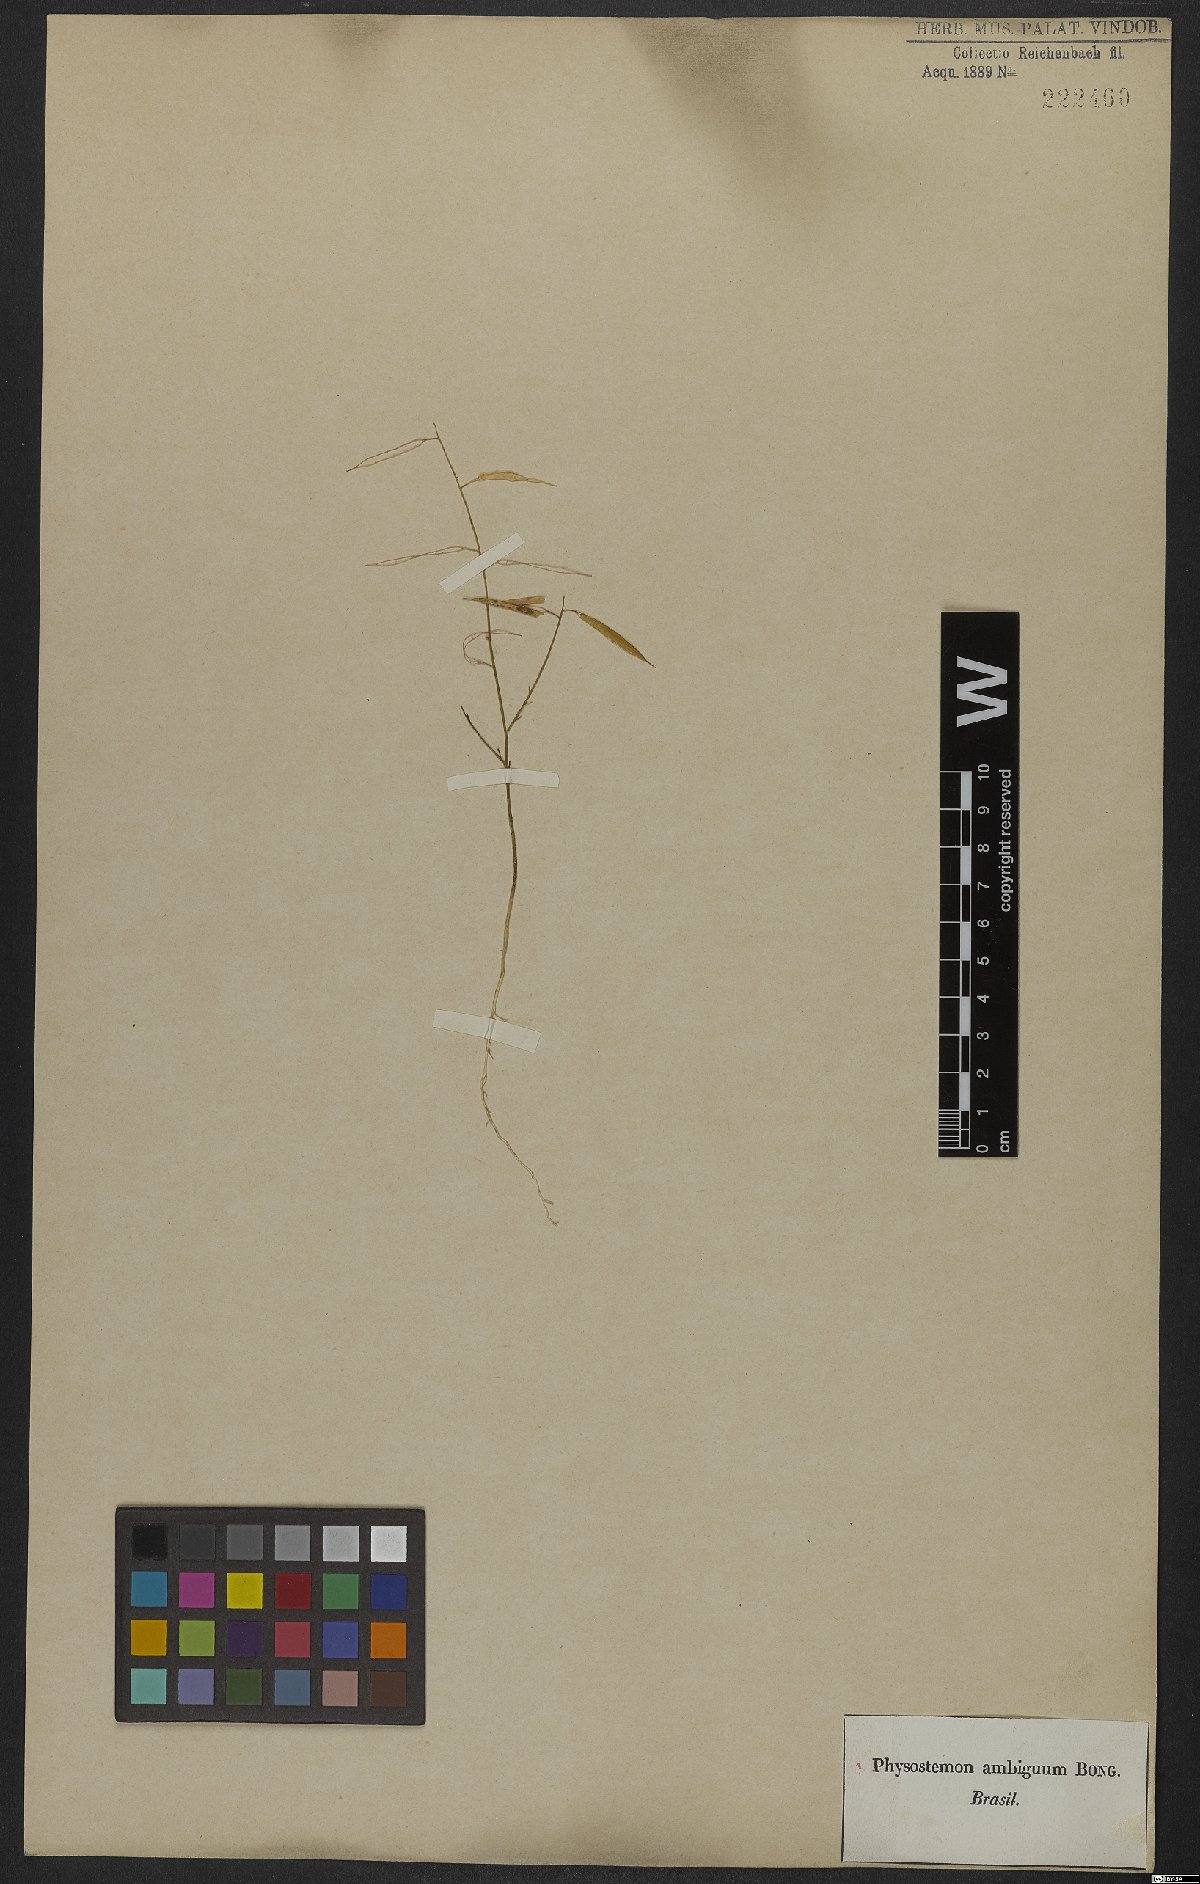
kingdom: Plantae
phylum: Tracheophyta
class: Magnoliopsida
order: Brassicales
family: Cleomaceae
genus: Physostemon
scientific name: Physostemon lanceolatus
